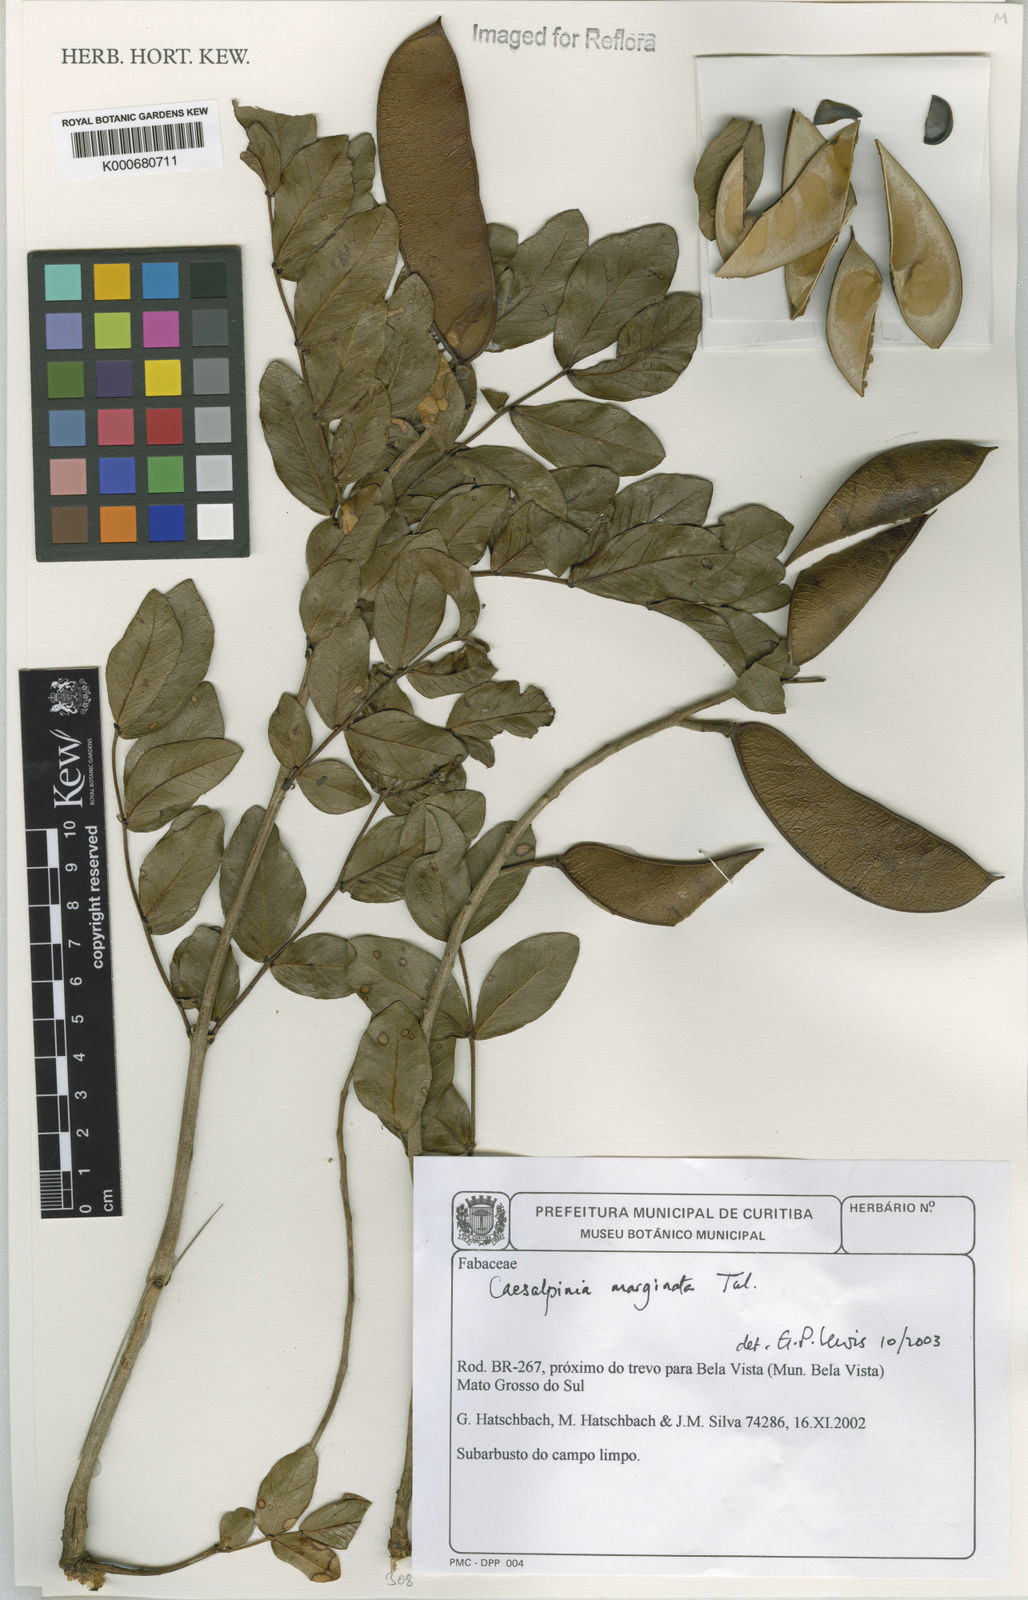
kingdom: Plantae
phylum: Tracheophyta
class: Magnoliopsida
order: Fabales
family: Fabaceae
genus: Cenostigma
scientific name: Cenostigma marginatum
